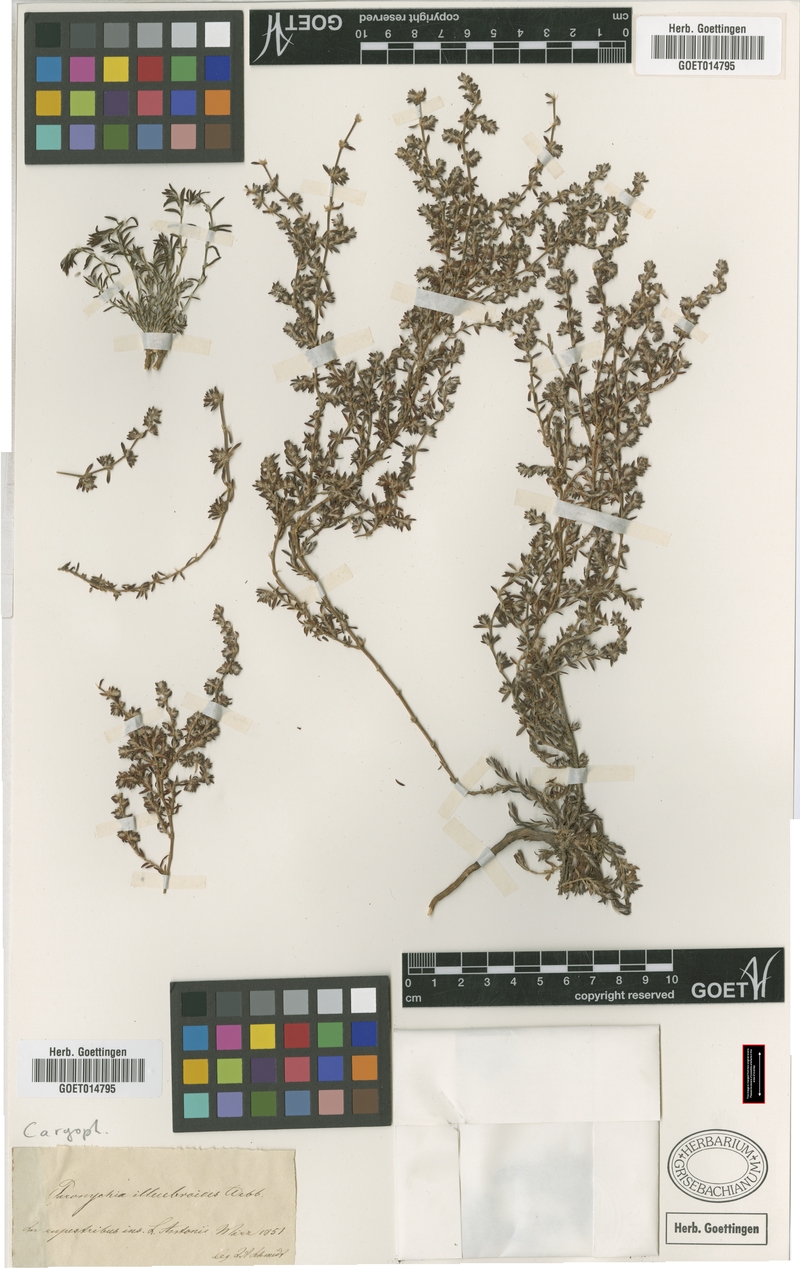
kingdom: Plantae
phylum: Tracheophyta
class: Magnoliopsida
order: Caryophyllales
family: Caryophyllaceae
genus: Paronychia
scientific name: Paronychia illecebroides
